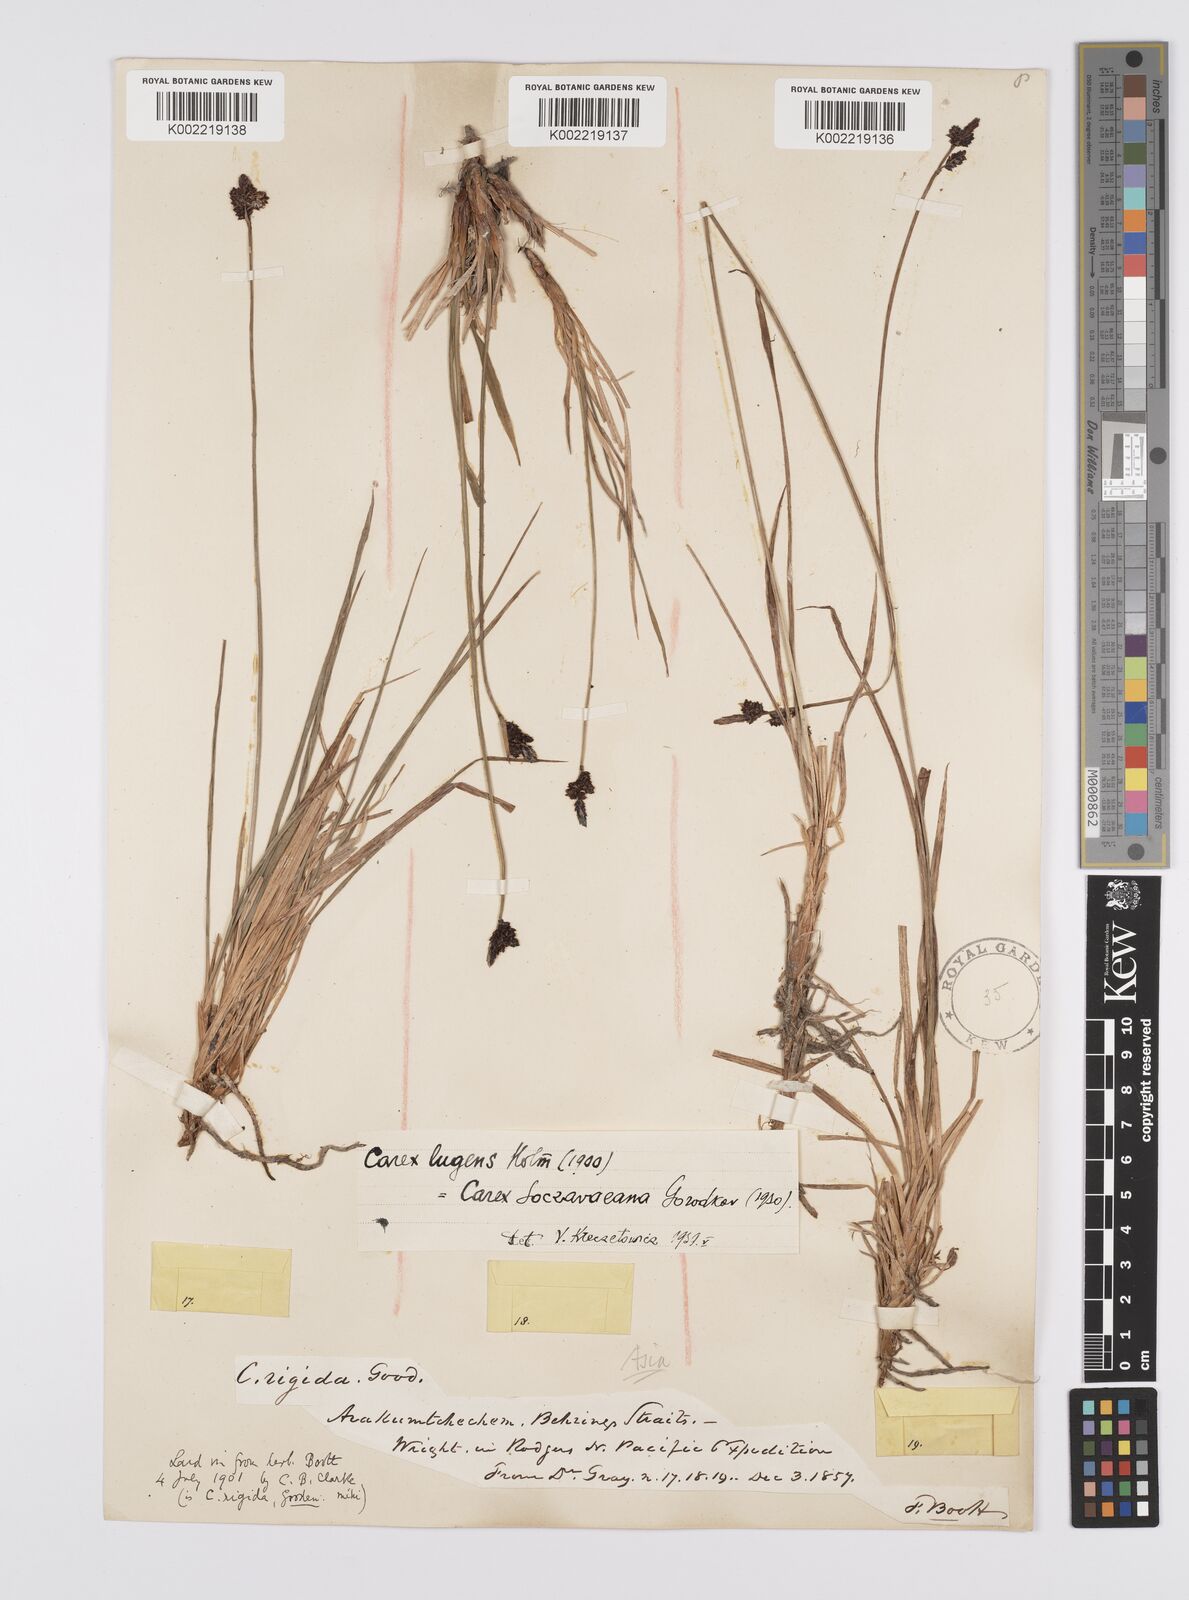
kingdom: Plantae
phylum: Tracheophyta
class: Liliopsida
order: Poales
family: Cyperaceae
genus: Carex
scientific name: Carex soczavaeana
